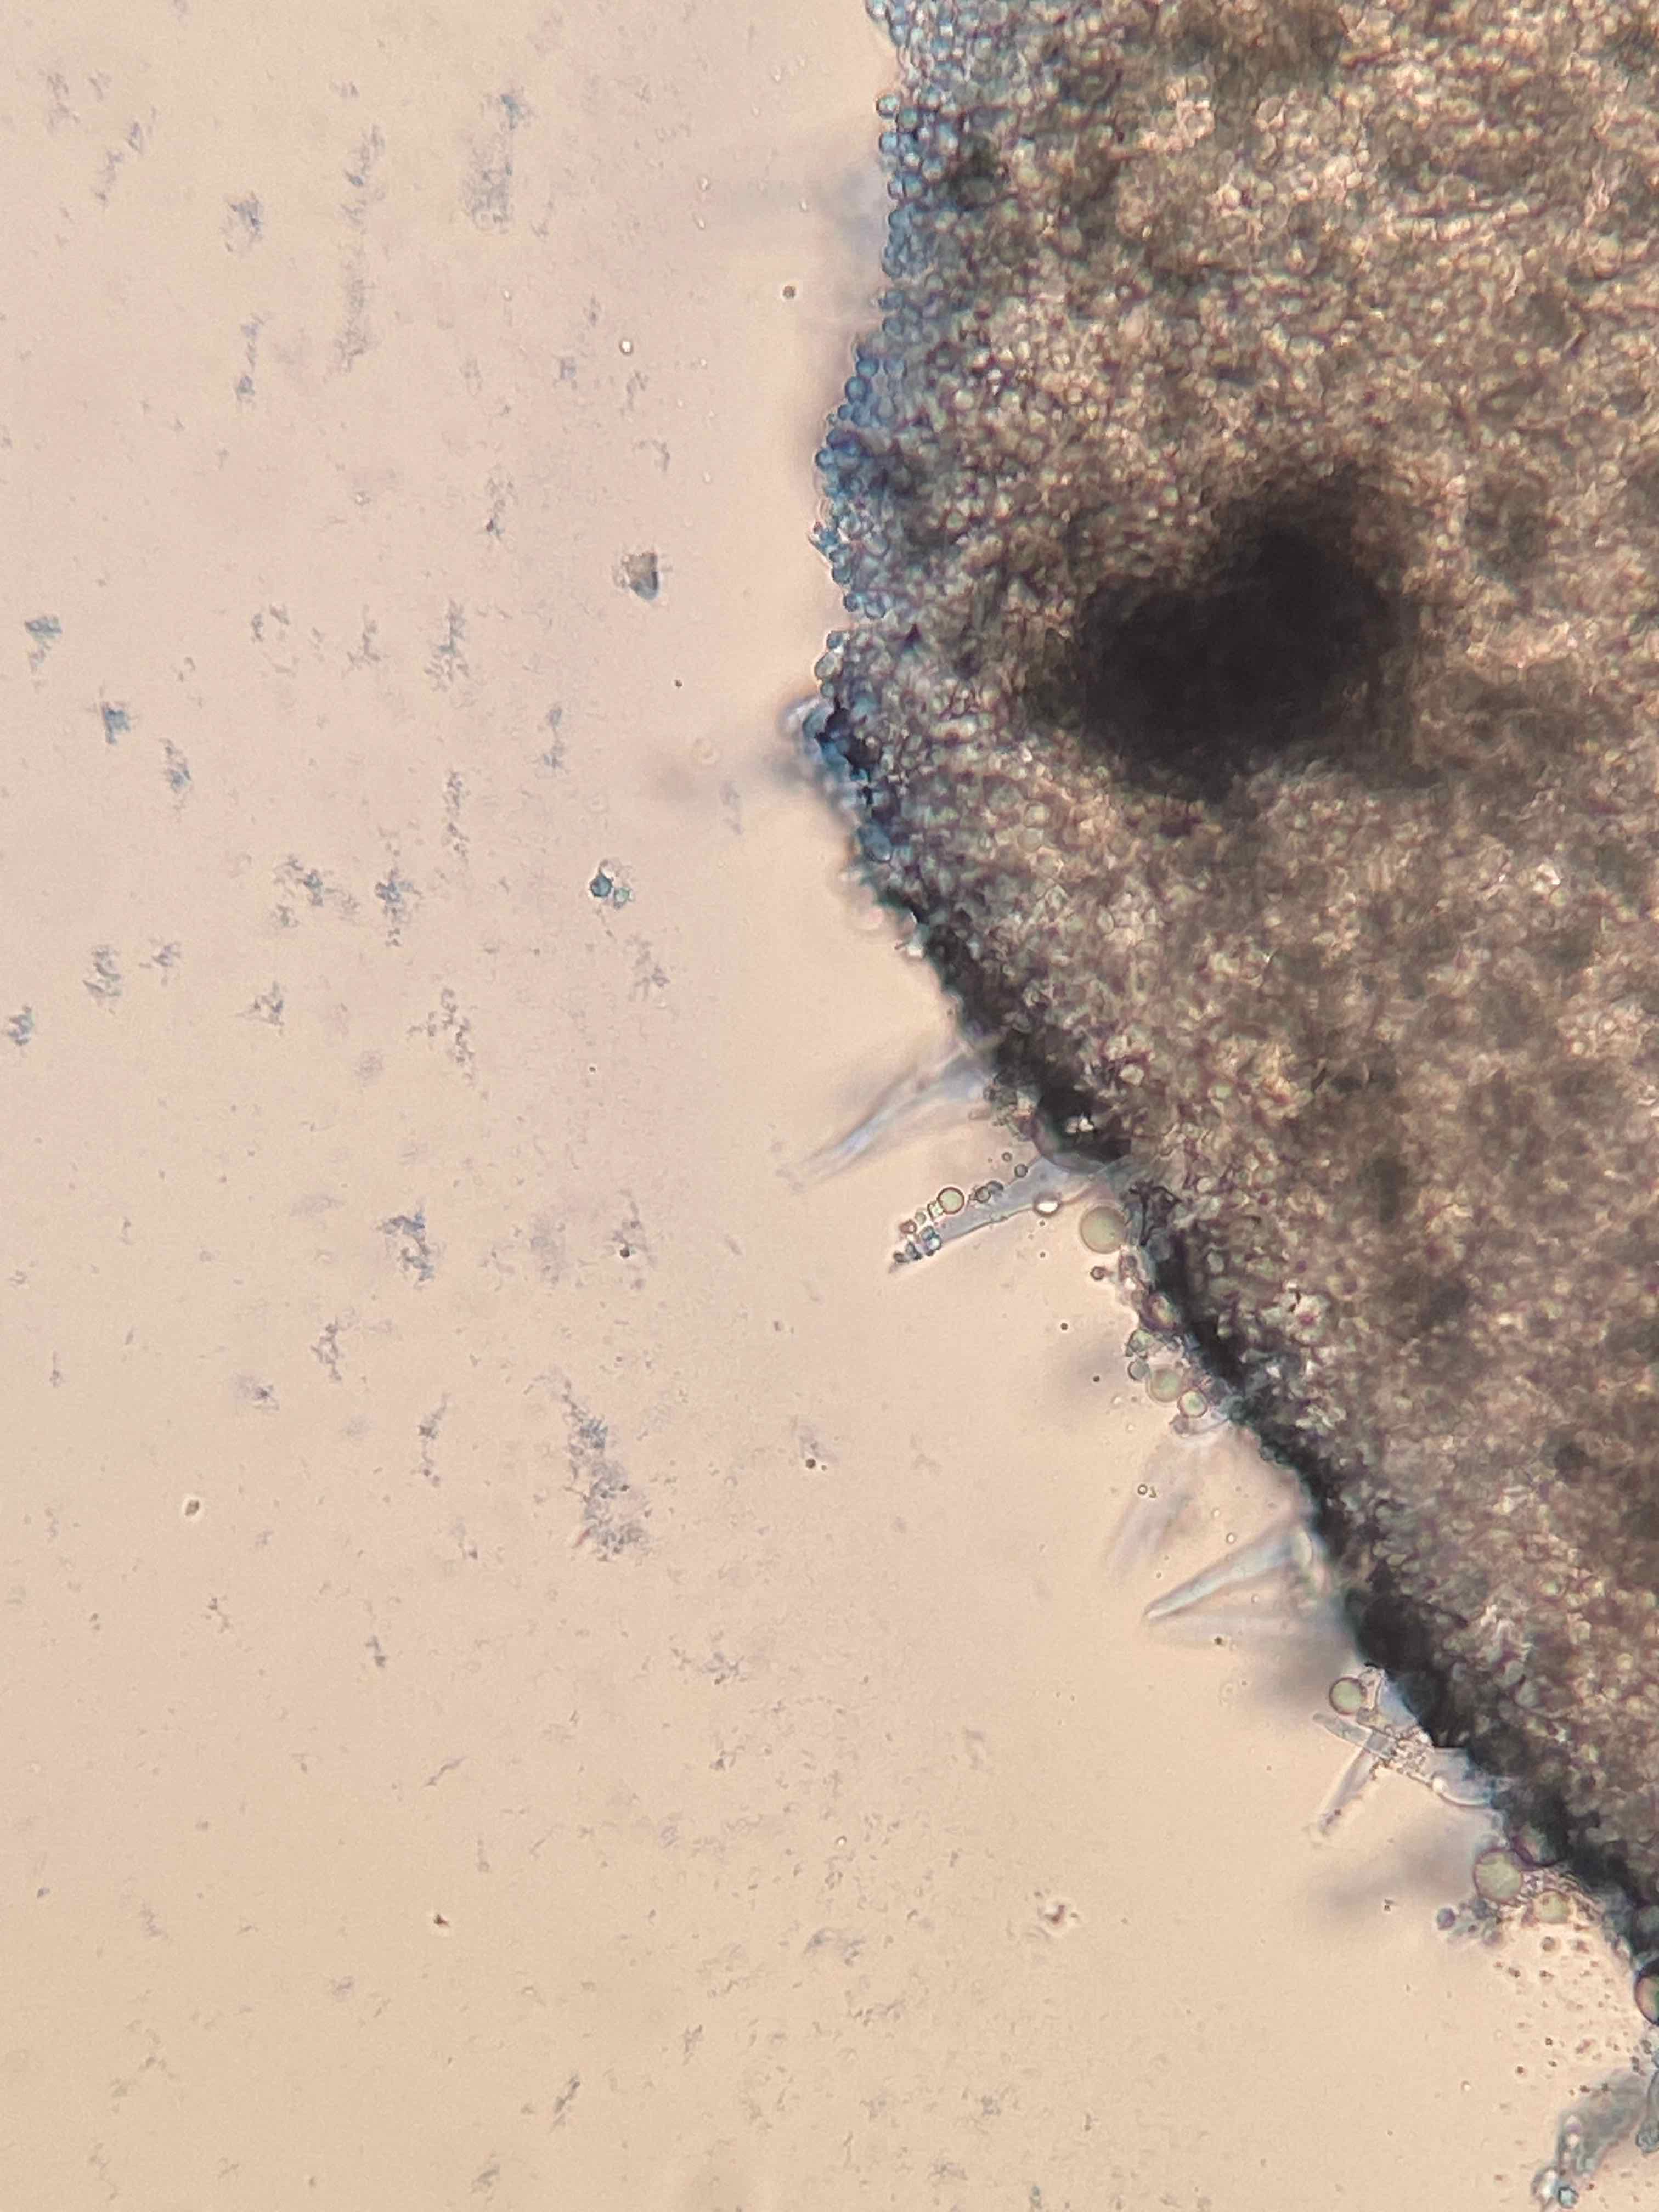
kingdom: Fungi
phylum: Basidiomycota
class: Agaricomycetes
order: Agaricales
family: Tricholomataceae
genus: Mycenella
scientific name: Mycenella trachyspora
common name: rødprikket dughat
